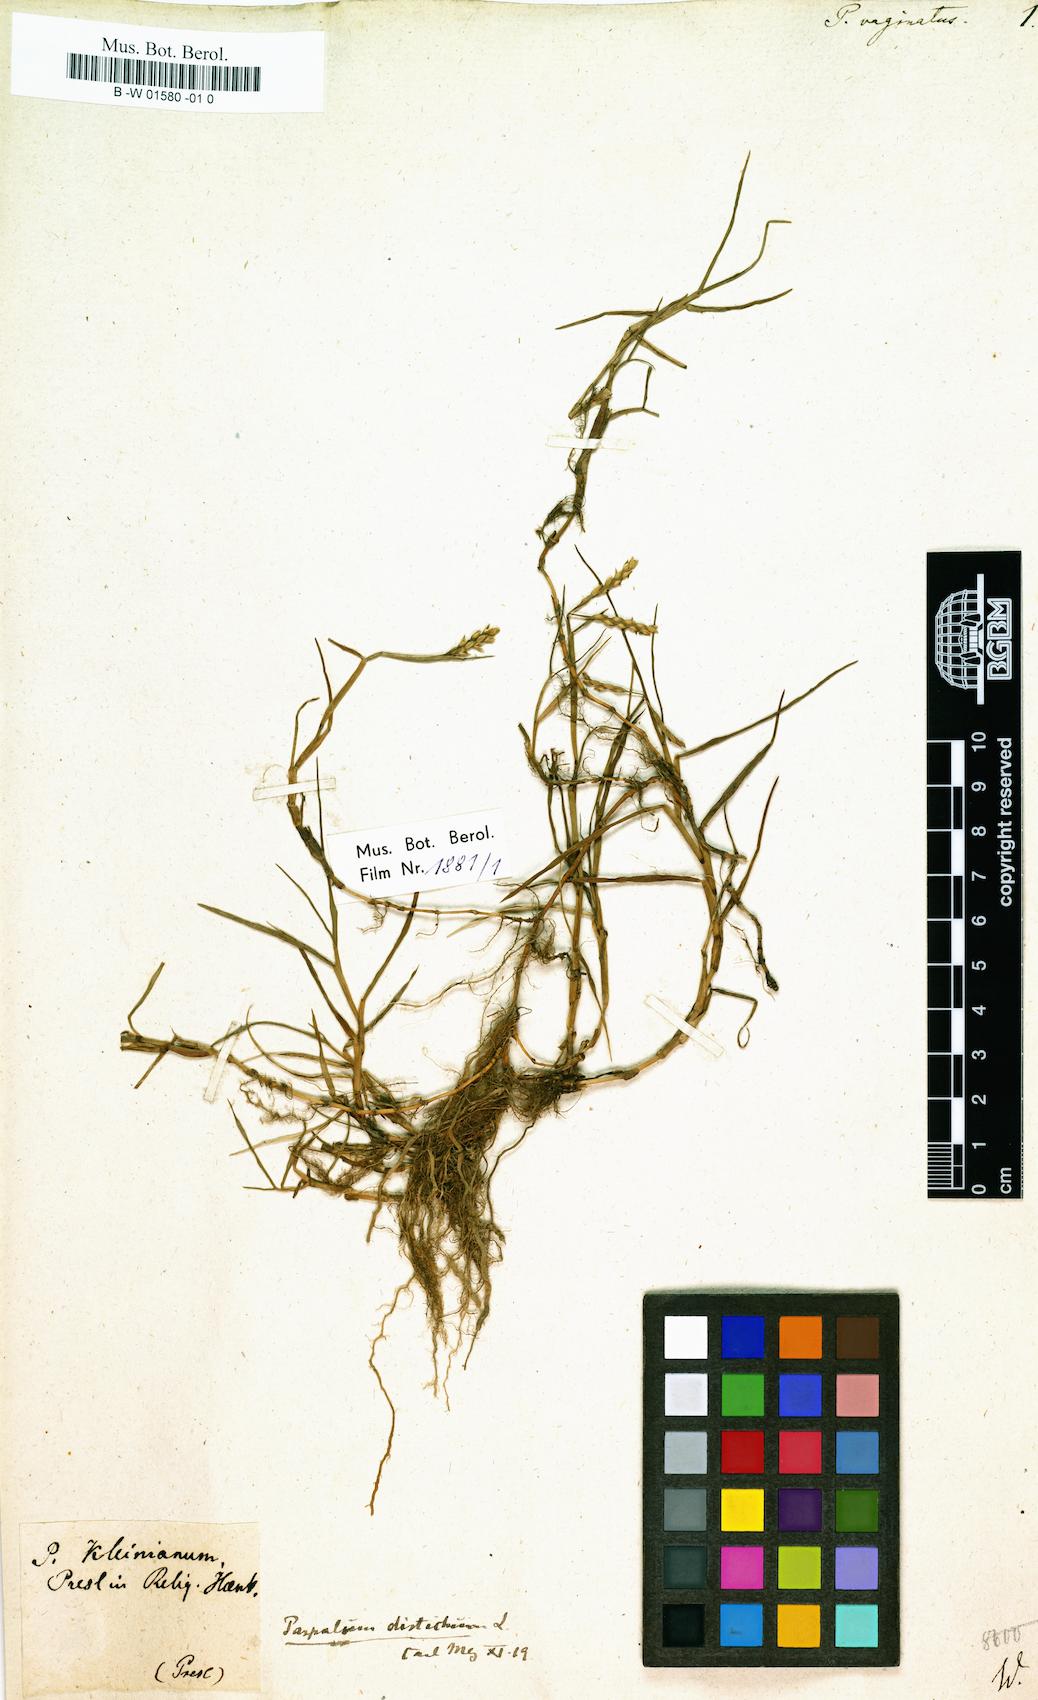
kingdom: Plantae
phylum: Tracheophyta
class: Liliopsida
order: Poales
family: Poaceae
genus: Paspalus
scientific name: Paspalus
